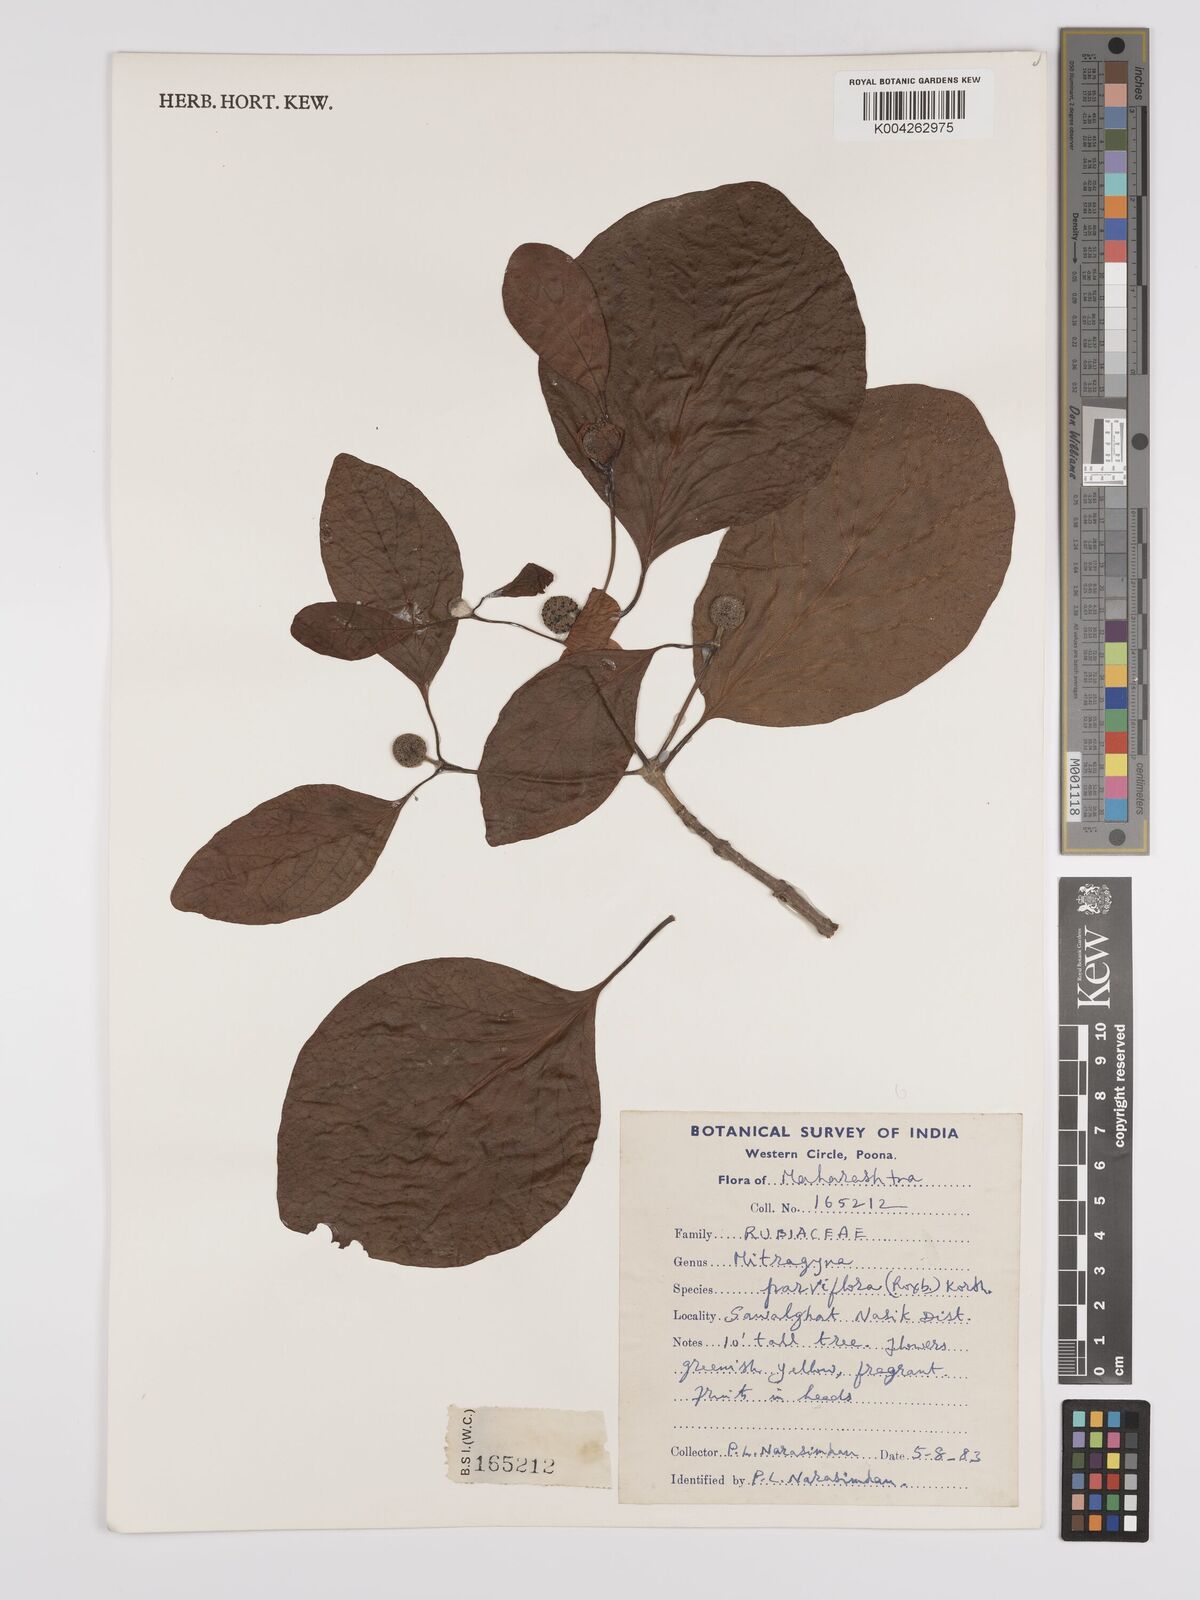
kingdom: Plantae
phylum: Tracheophyta
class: Magnoliopsida
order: Gentianales
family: Rubiaceae
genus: Mitragyna
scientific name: Mitragyna parvifolia
